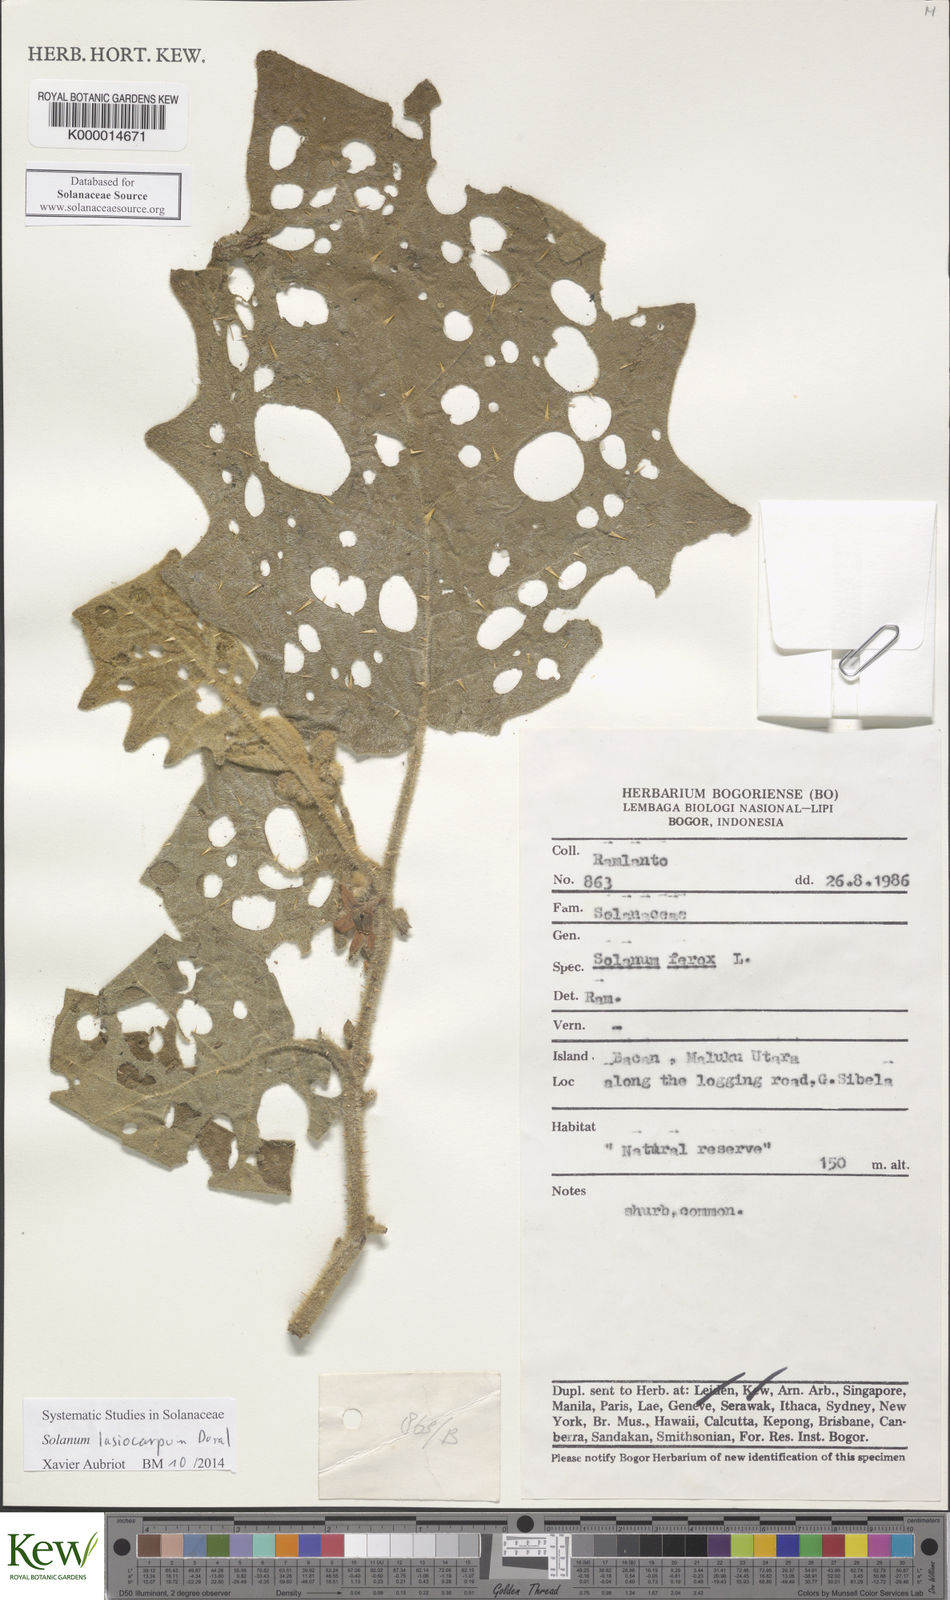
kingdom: Plantae
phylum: Tracheophyta
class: Magnoliopsida
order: Solanales
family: Solanaceae
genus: Solanum
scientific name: Solanum lasiocarpum
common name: Indian nightshade
